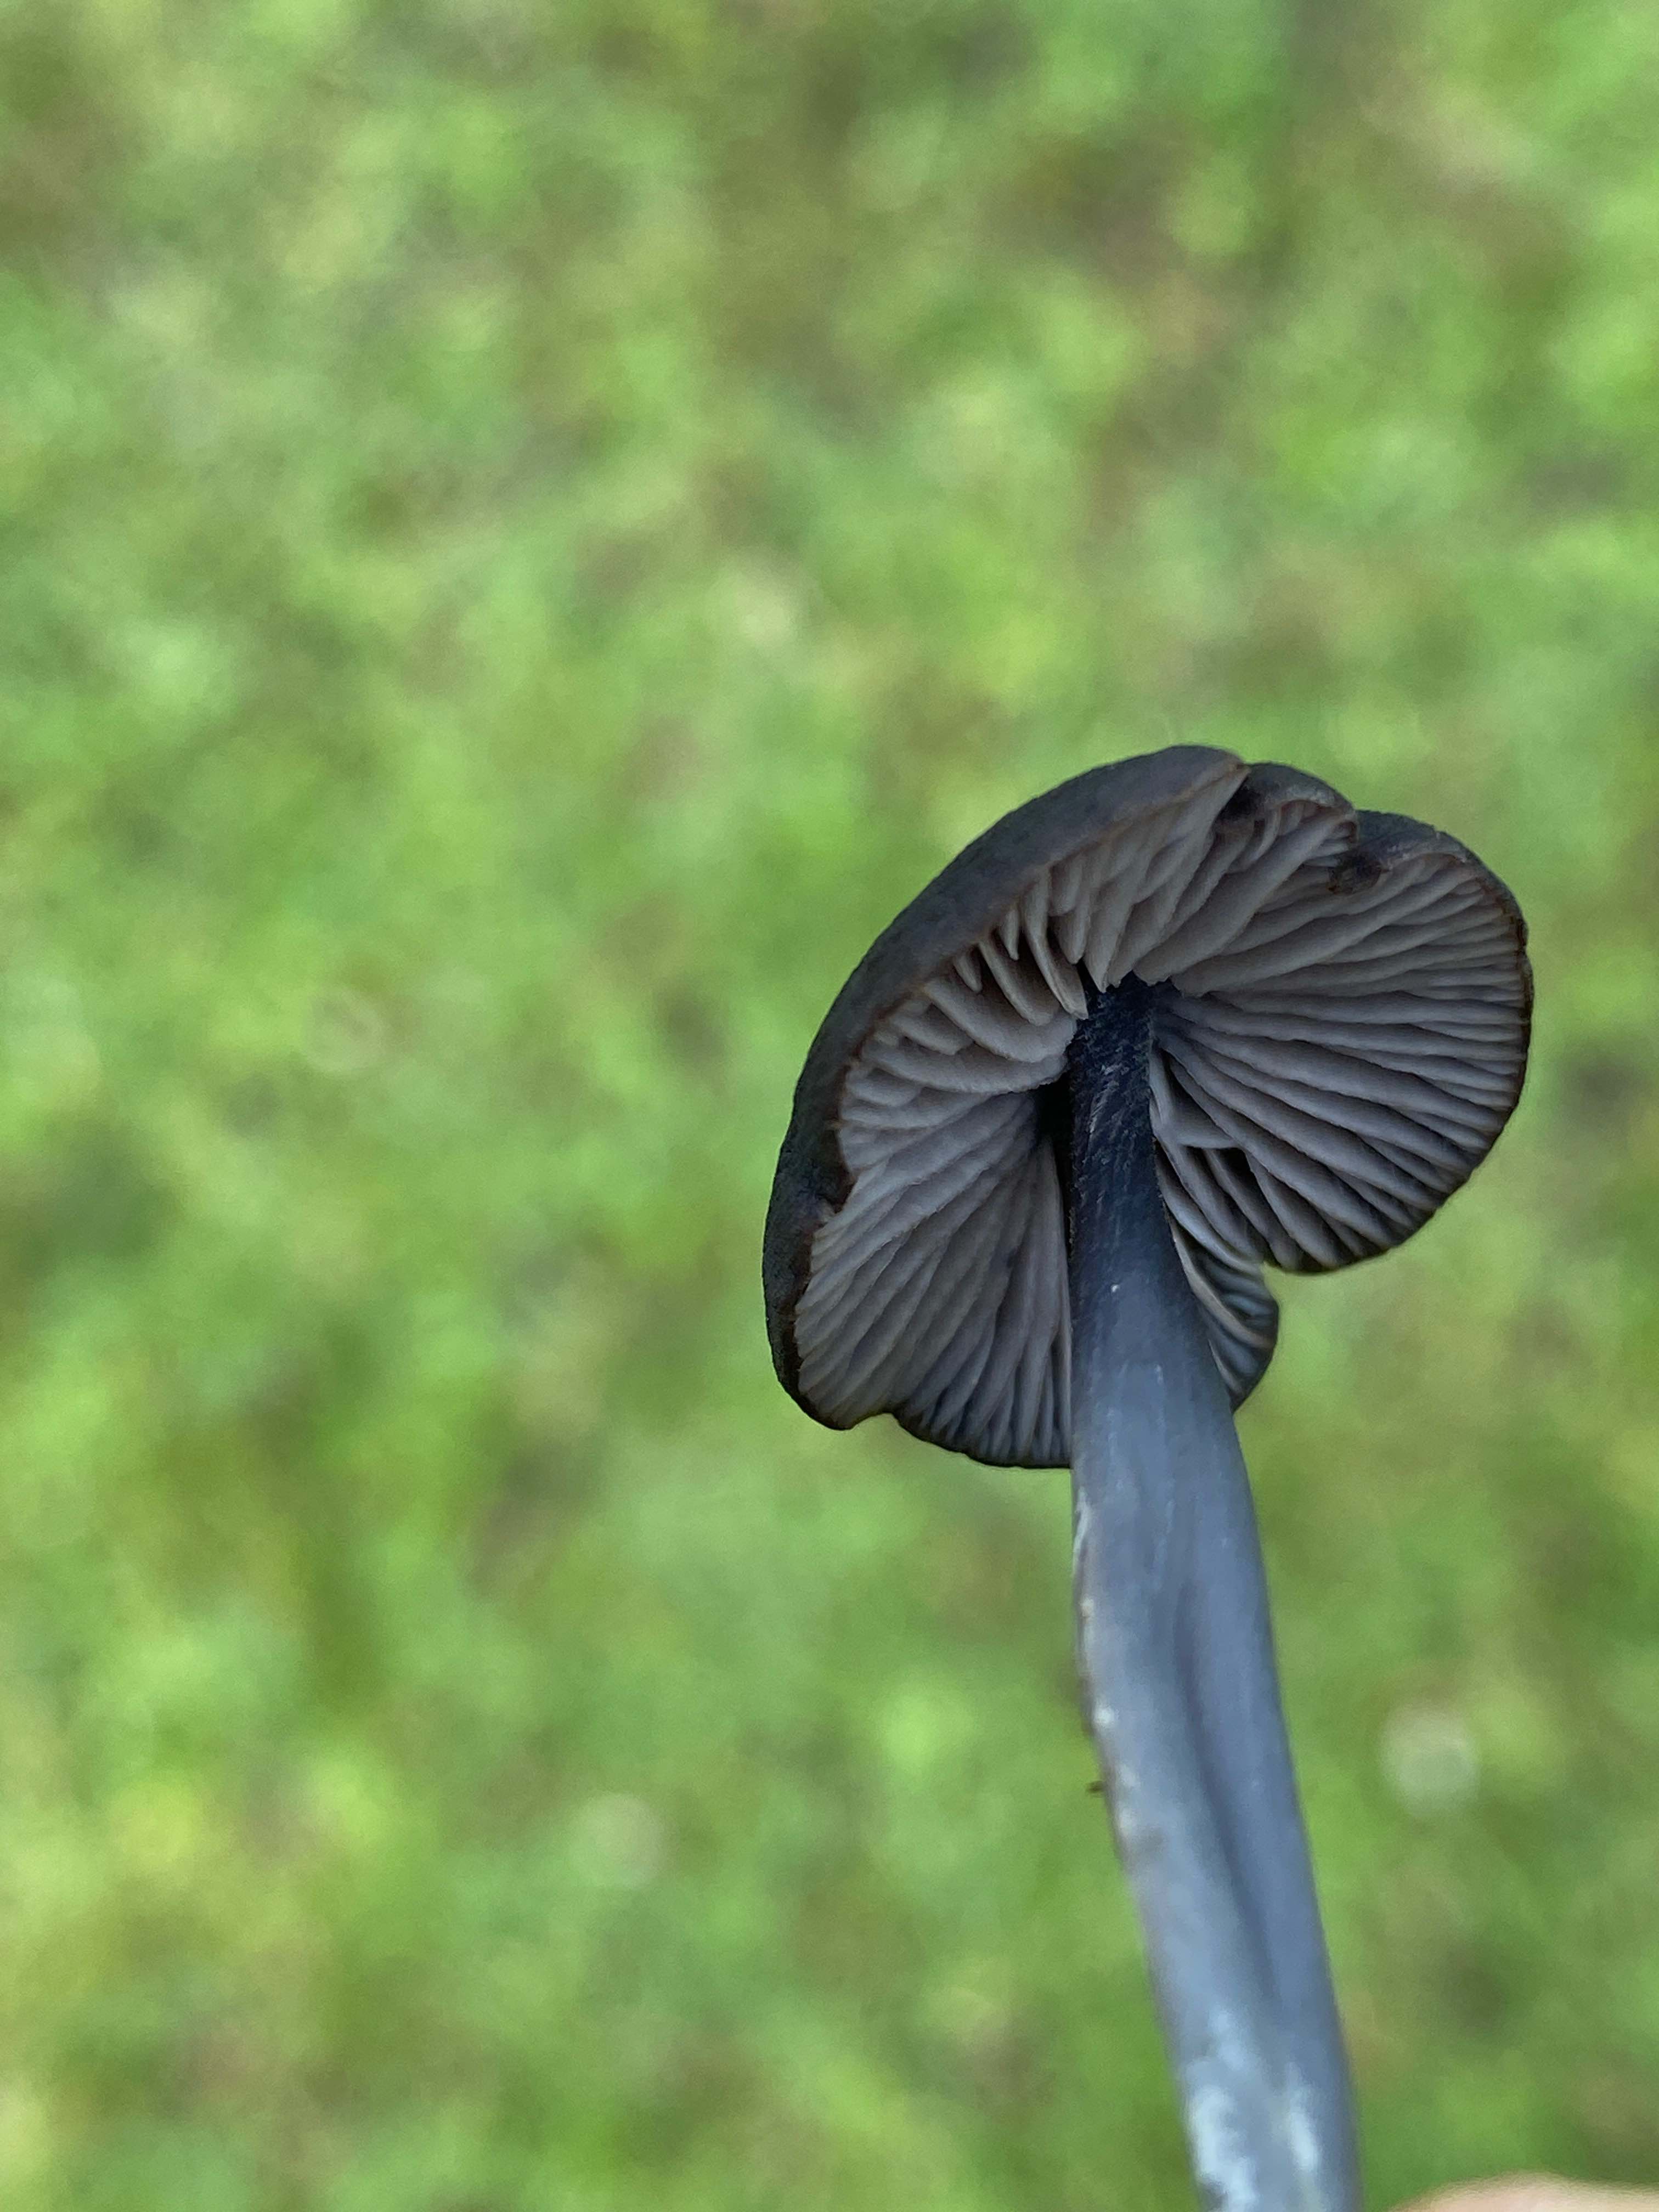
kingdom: Fungi
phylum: Basidiomycota
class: Agaricomycetes
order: Agaricales
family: Entolomataceae
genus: Entoloma
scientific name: Entoloma chalybeum
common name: blåbladet rødblad
